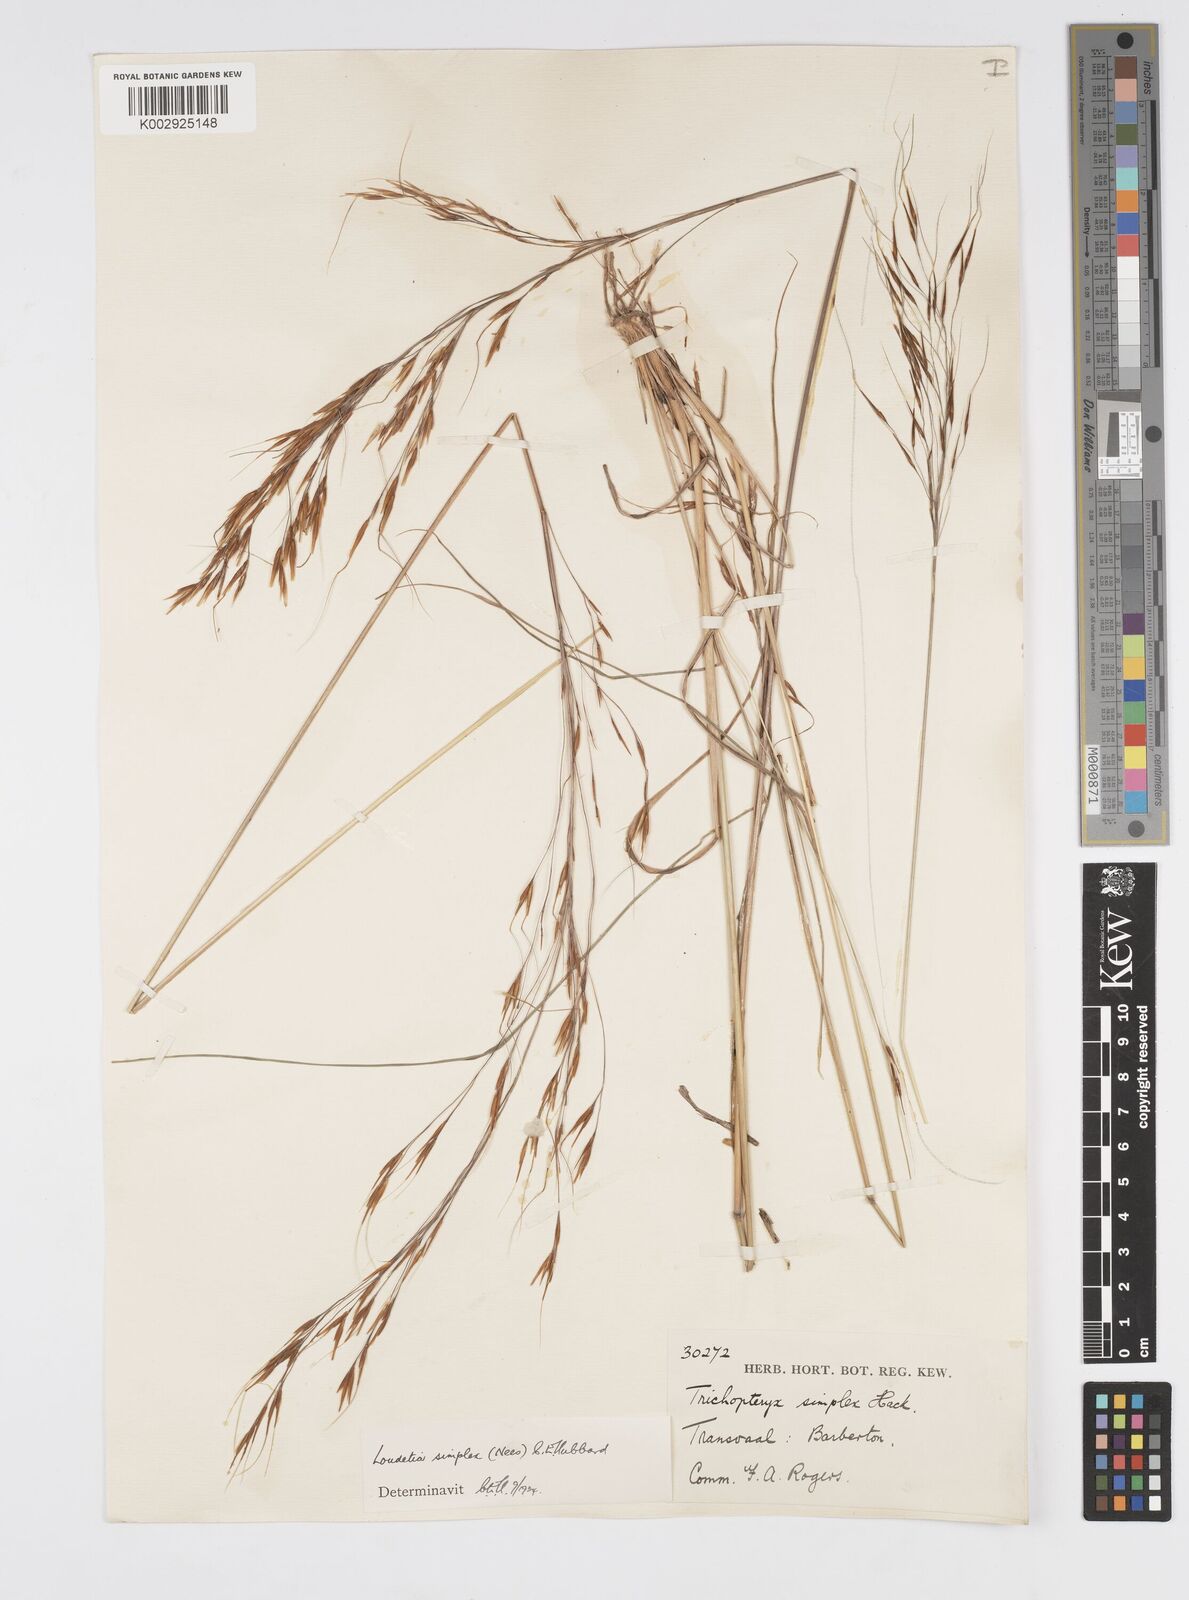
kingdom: Plantae
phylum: Tracheophyta
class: Liliopsida
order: Poales
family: Poaceae
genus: Loudetia
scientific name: Loudetia simplex
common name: Common russet grass
